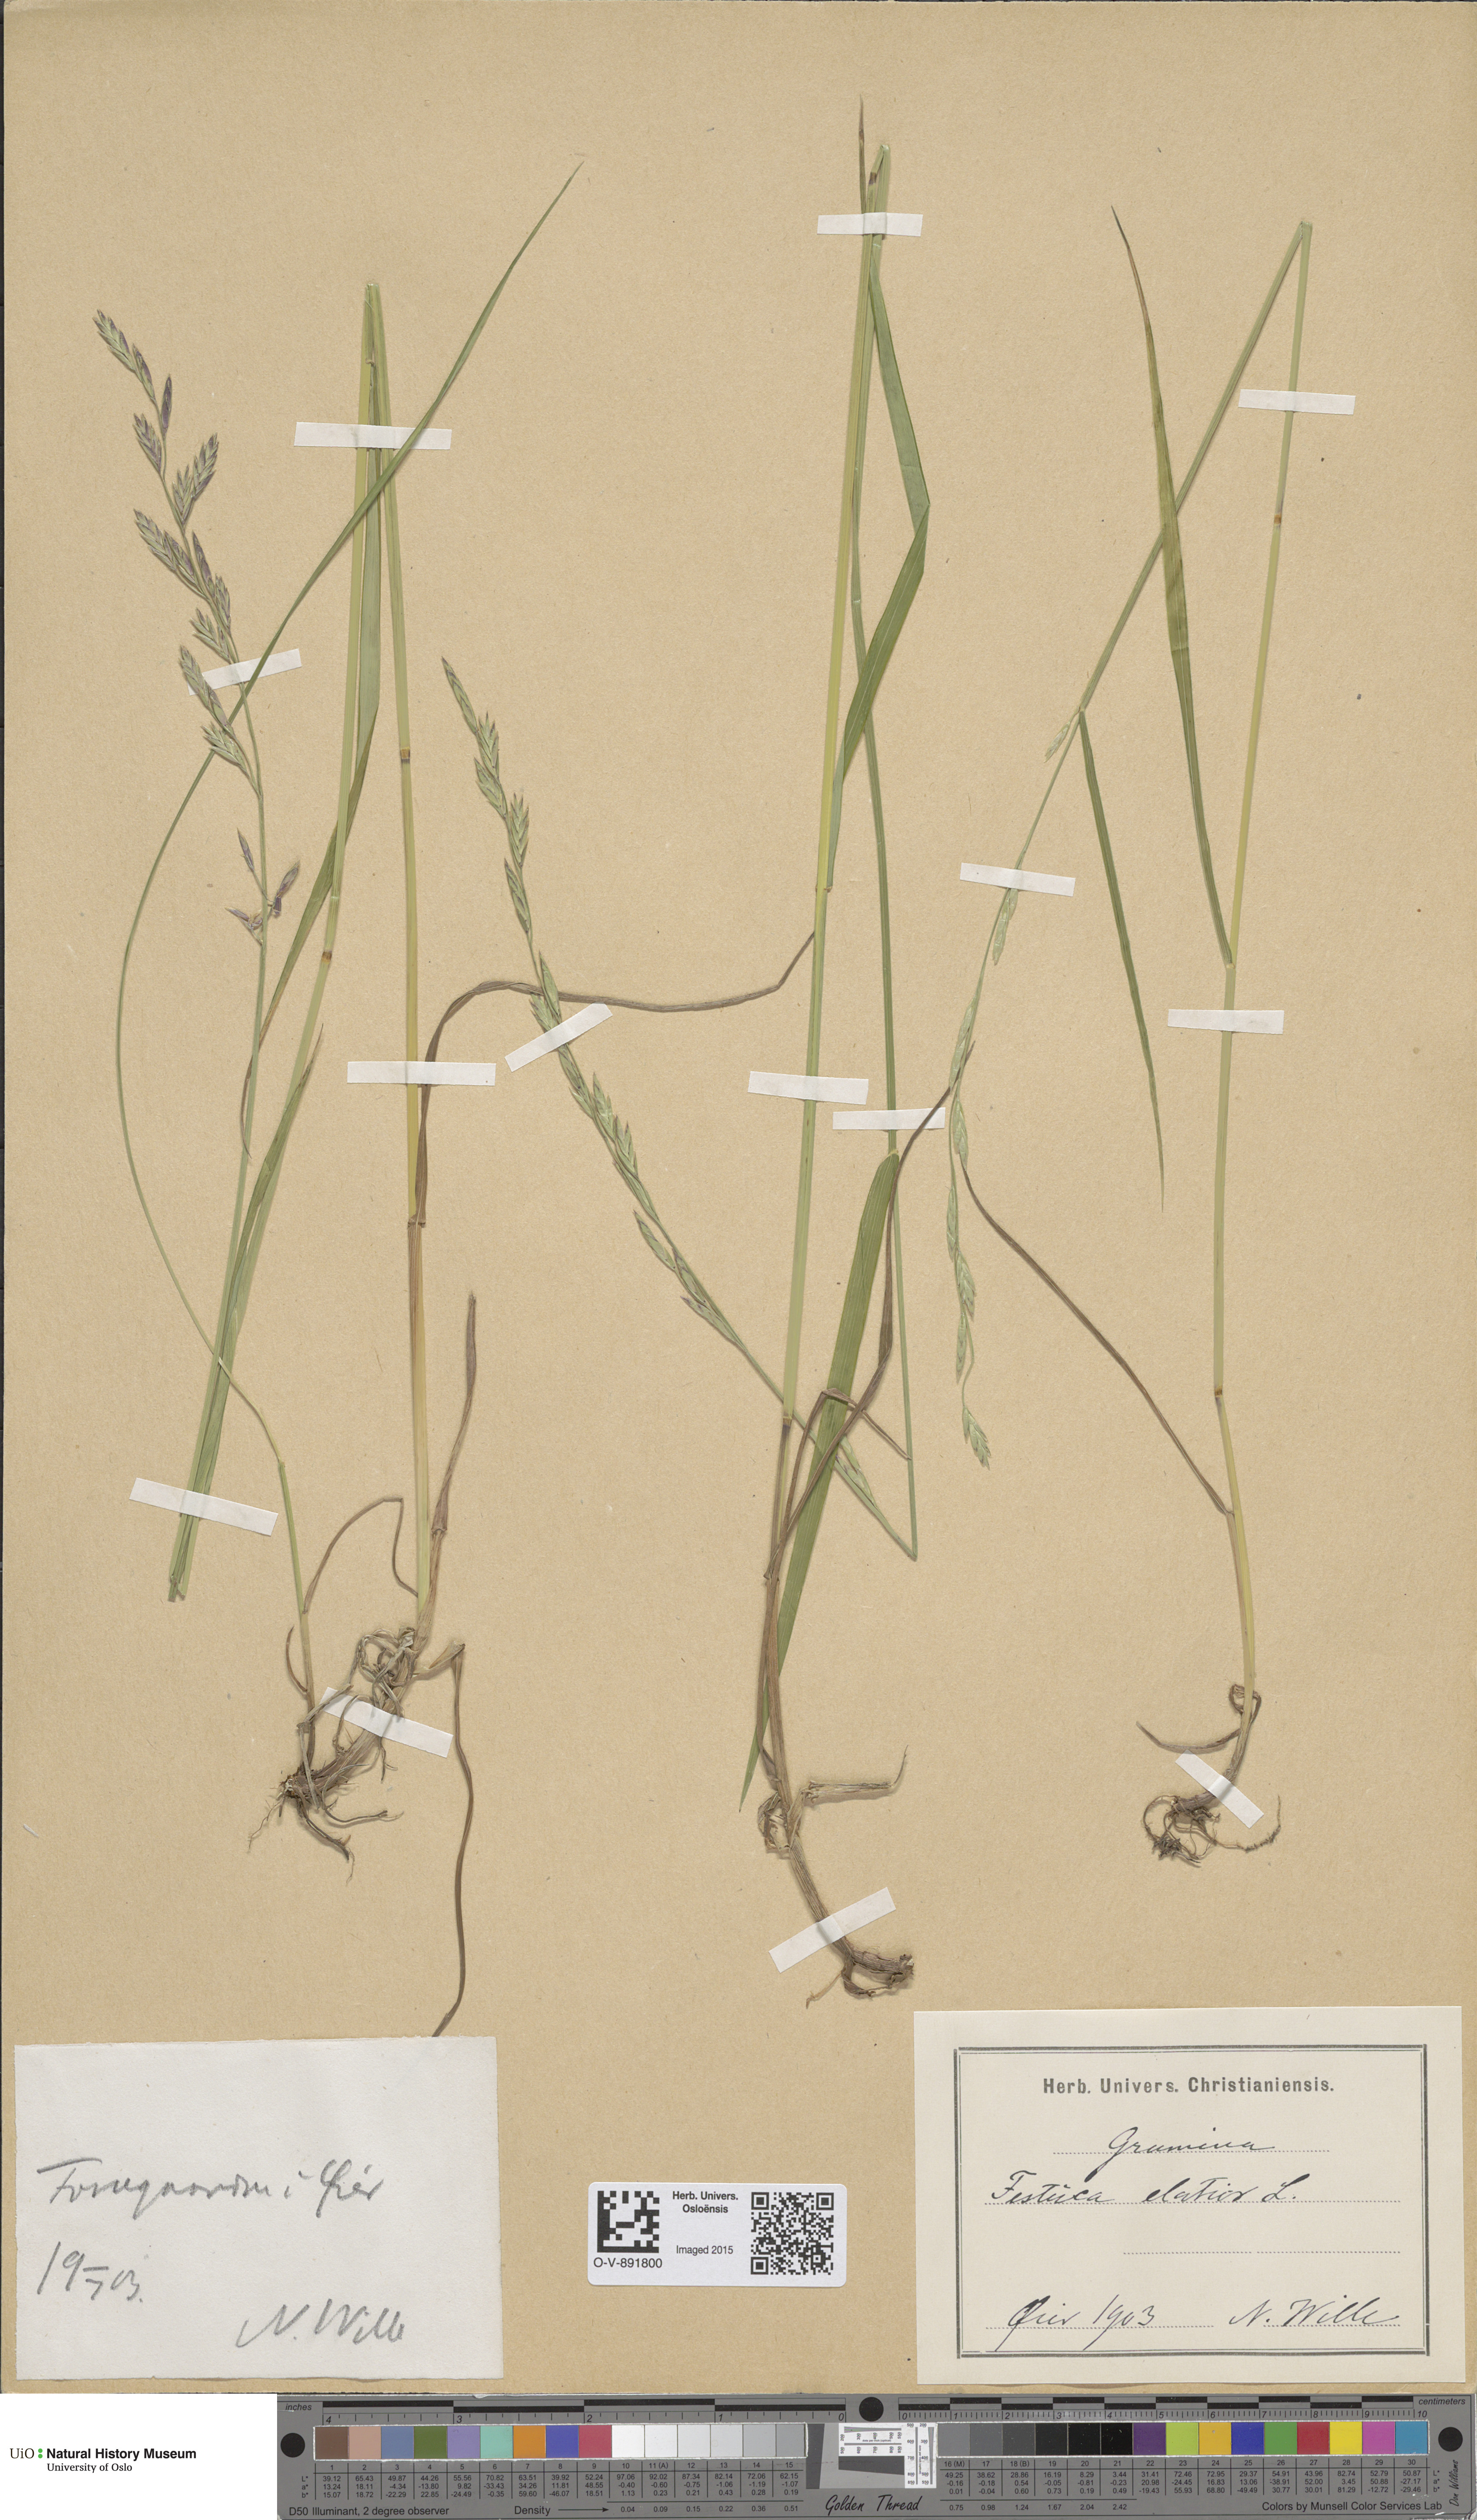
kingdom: Plantae
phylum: Tracheophyta
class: Liliopsida
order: Poales
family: Poaceae
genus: Lolium
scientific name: Lolium arundinaceum
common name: Reed fescue
